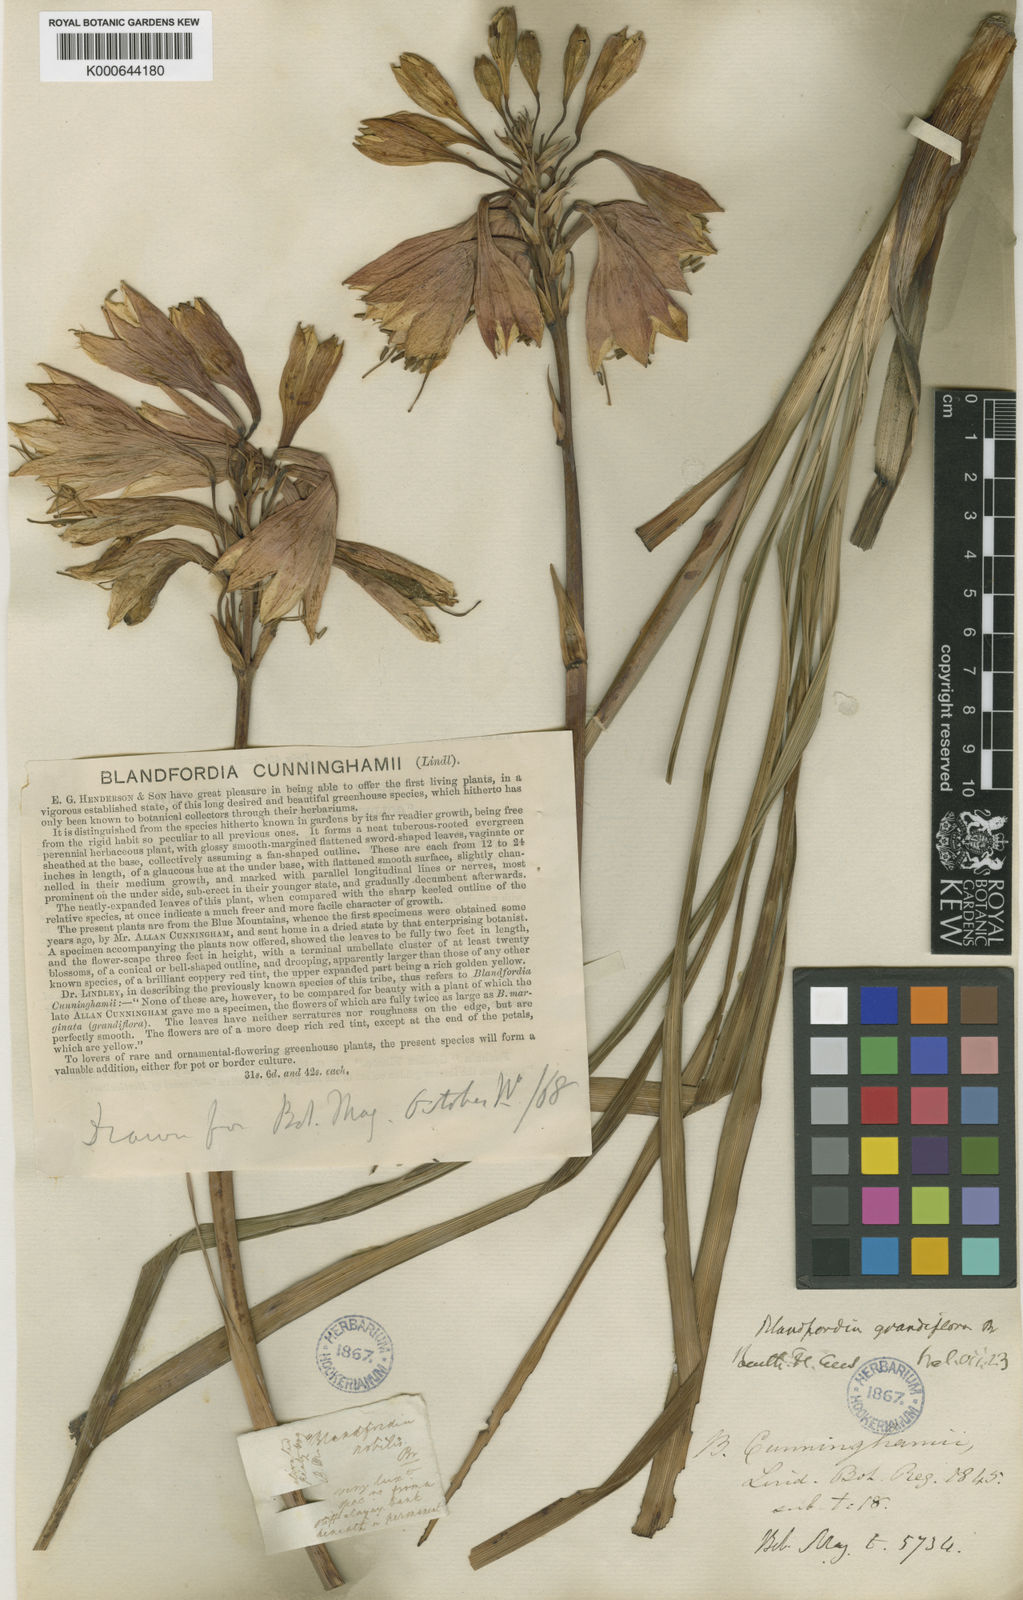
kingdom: Plantae
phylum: Tracheophyta
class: Liliopsida
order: Asparagales
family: Blandfordiaceae
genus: Blandfordia
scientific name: Blandfordia cunninghamii
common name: Christmas-bell
